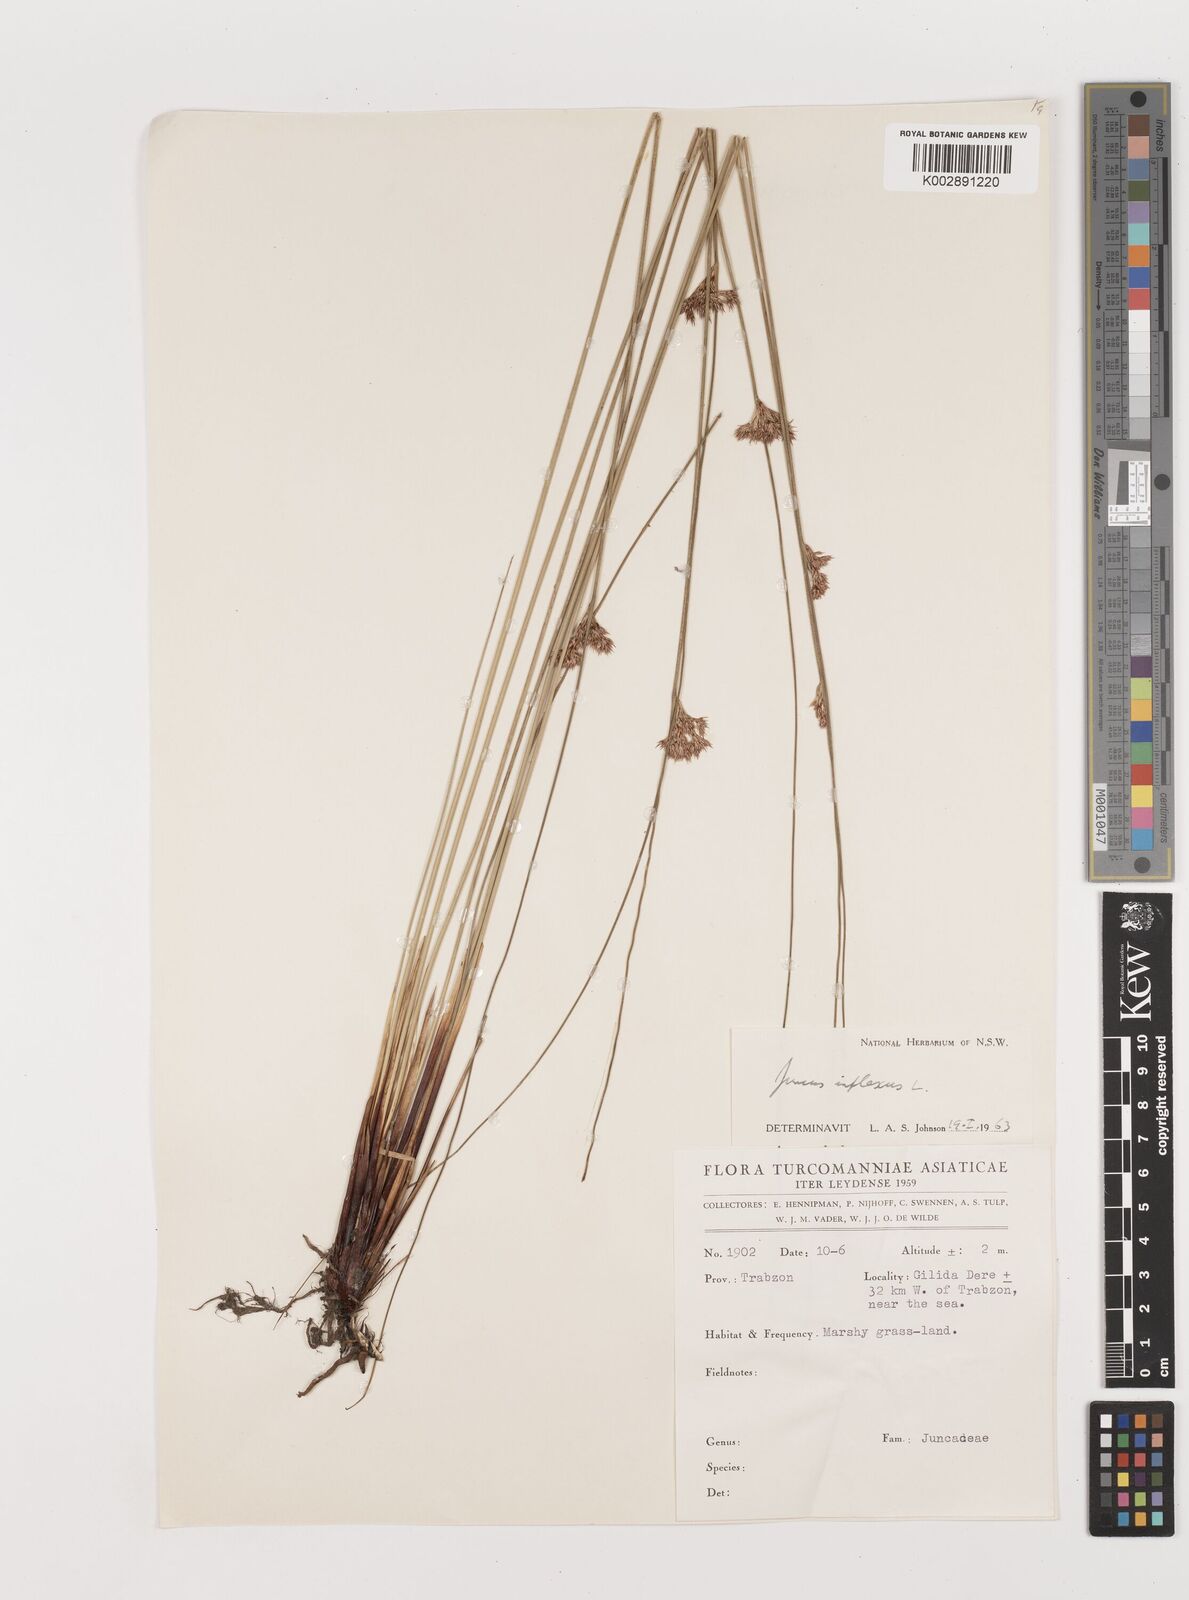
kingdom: Plantae
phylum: Tracheophyta
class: Liliopsida
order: Poales
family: Juncaceae
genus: Juncus
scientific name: Juncus inflexus
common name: Hard rush
